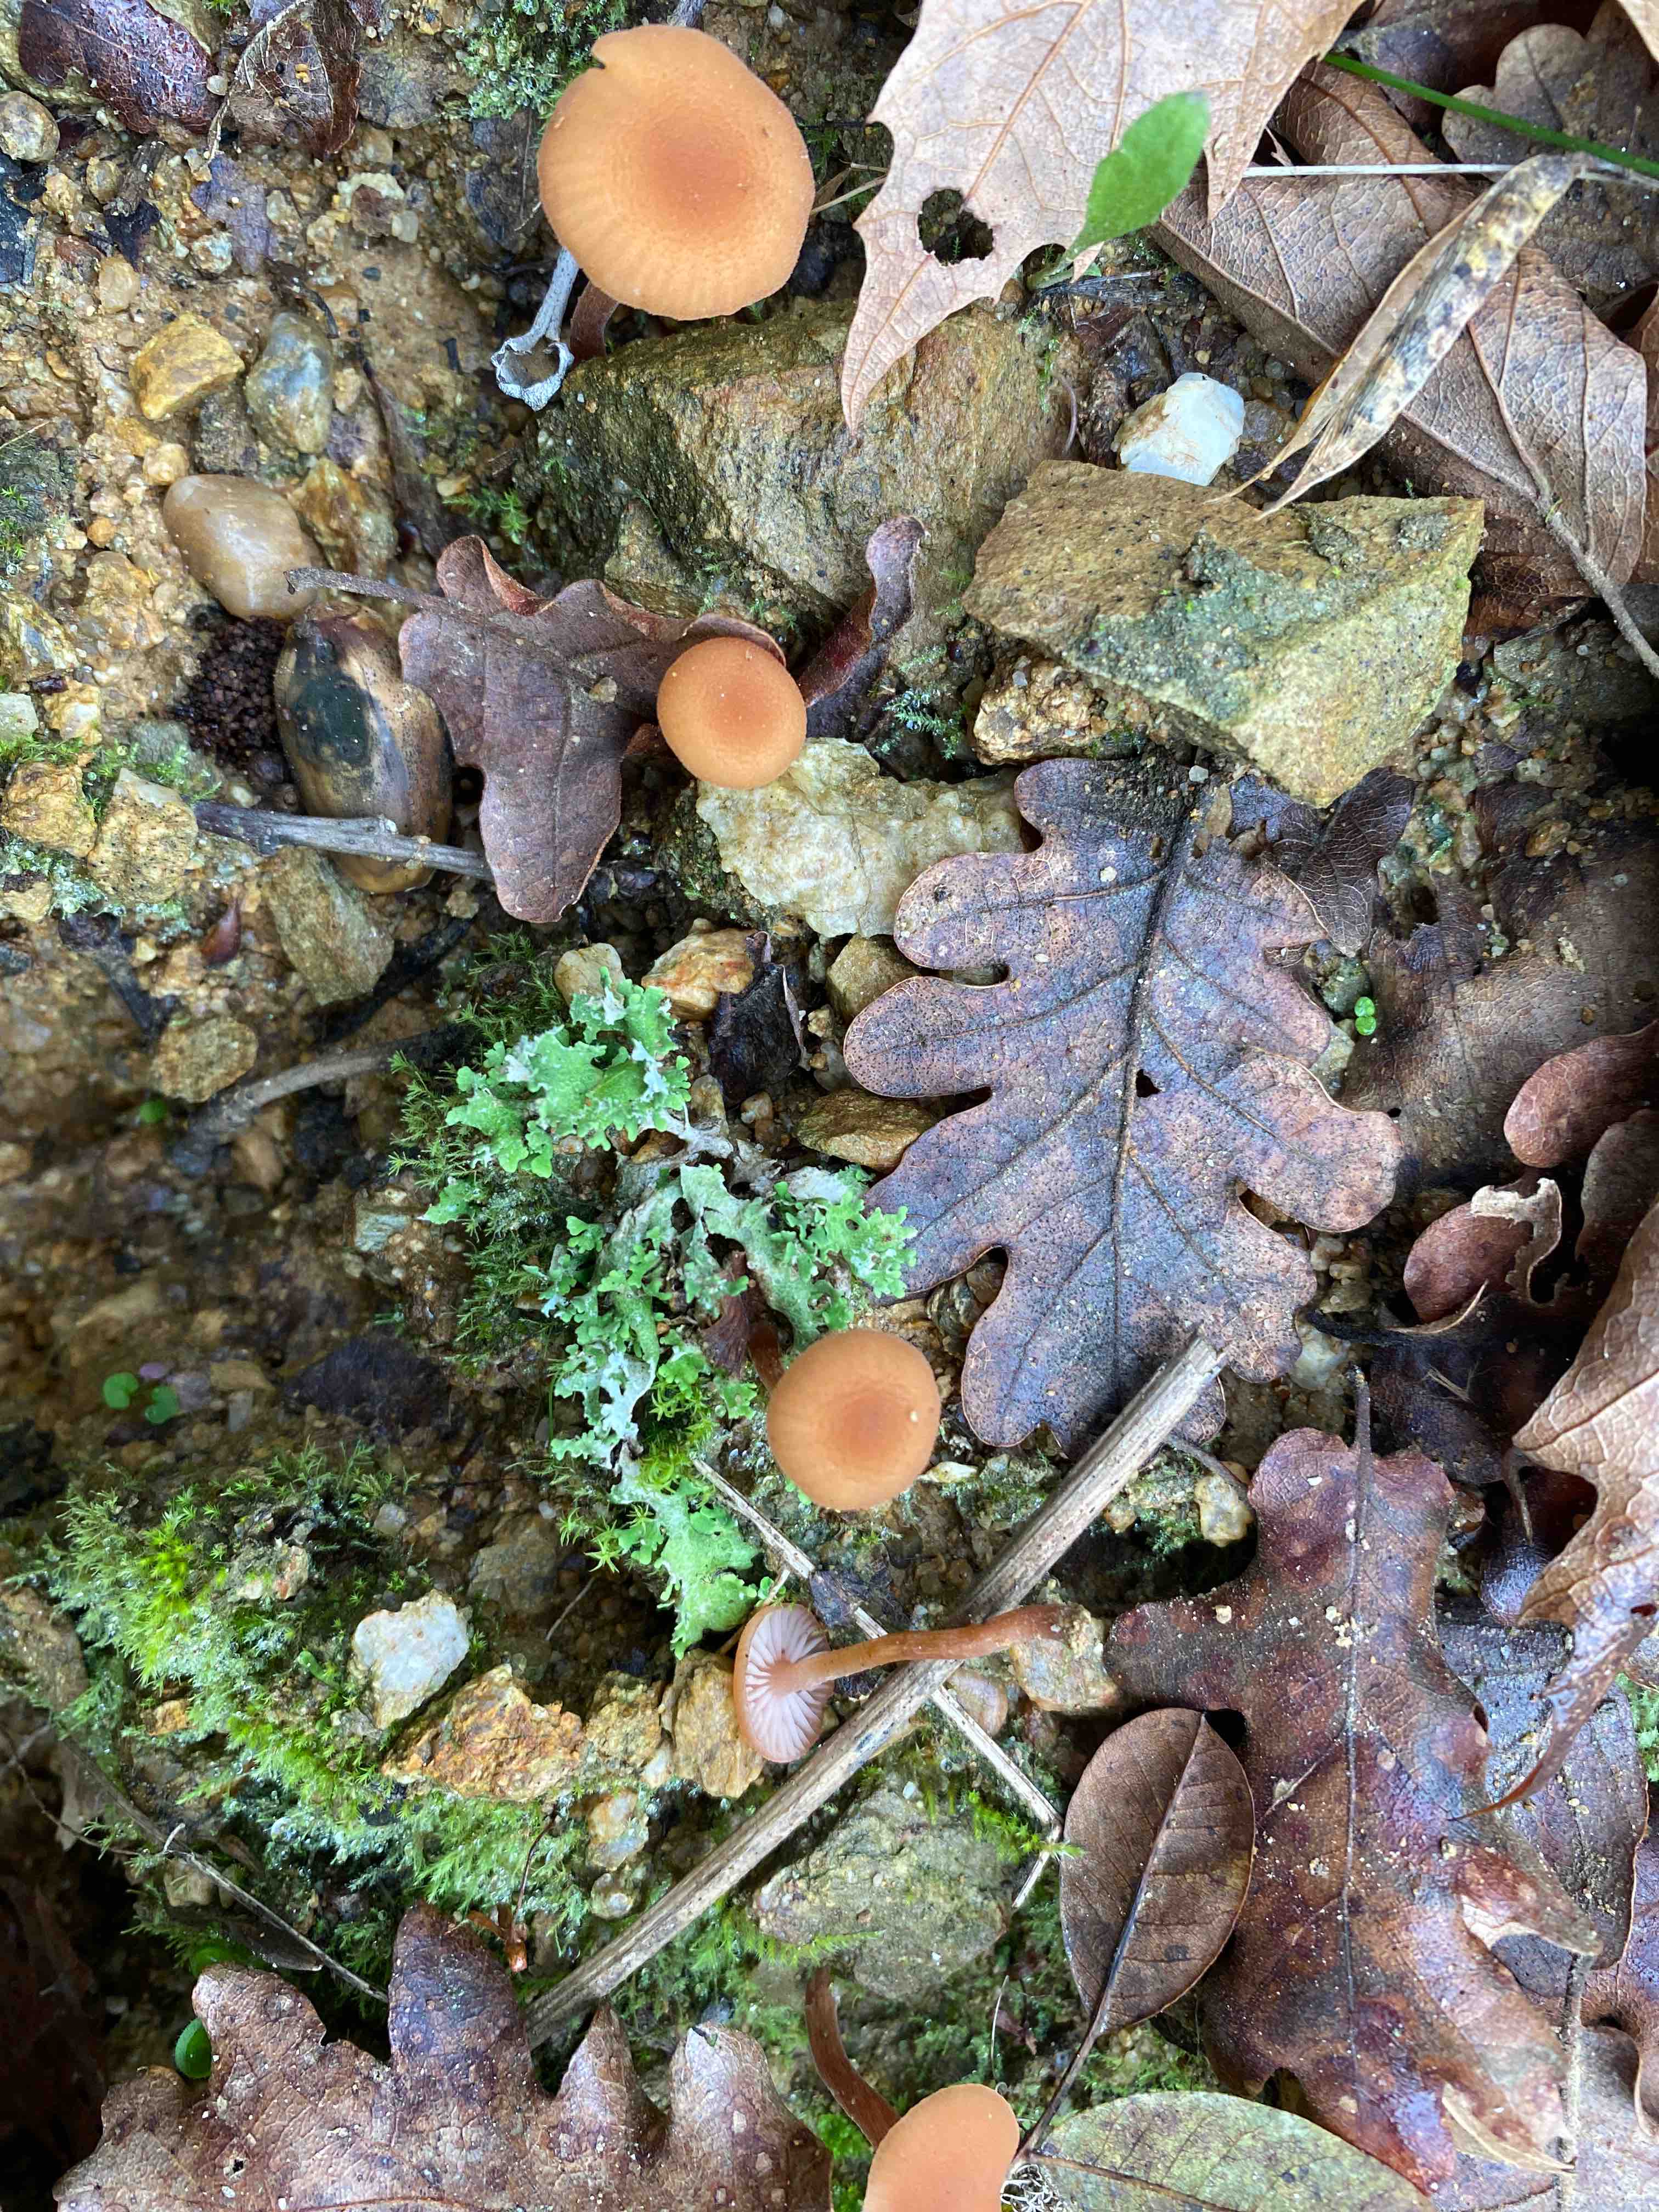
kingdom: Fungi
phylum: Basidiomycota
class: Agaricomycetes
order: Agaricales
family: Hydnangiaceae
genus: Laccaria
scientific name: Laccaria
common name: ametysthat
